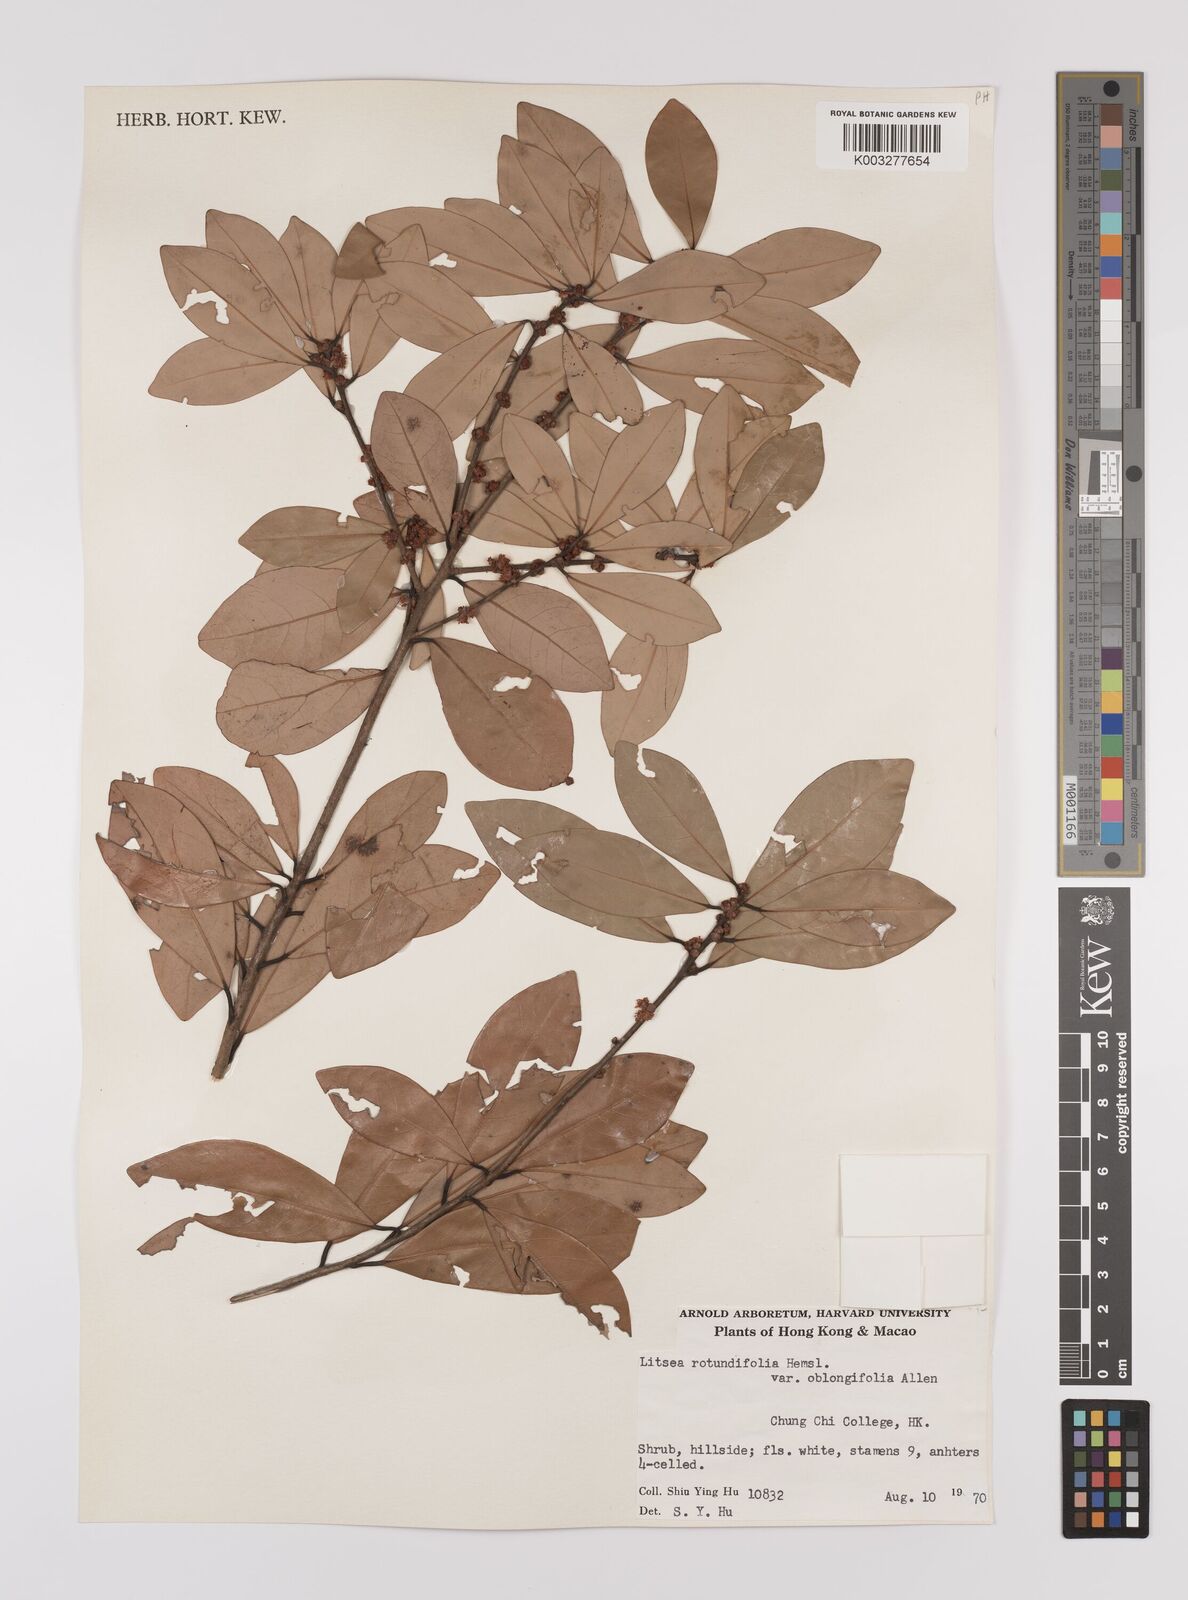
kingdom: Plantae
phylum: Tracheophyta
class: Magnoliopsida
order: Laurales
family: Lauraceae
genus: Litsea
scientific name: Litsea rotundifolia
